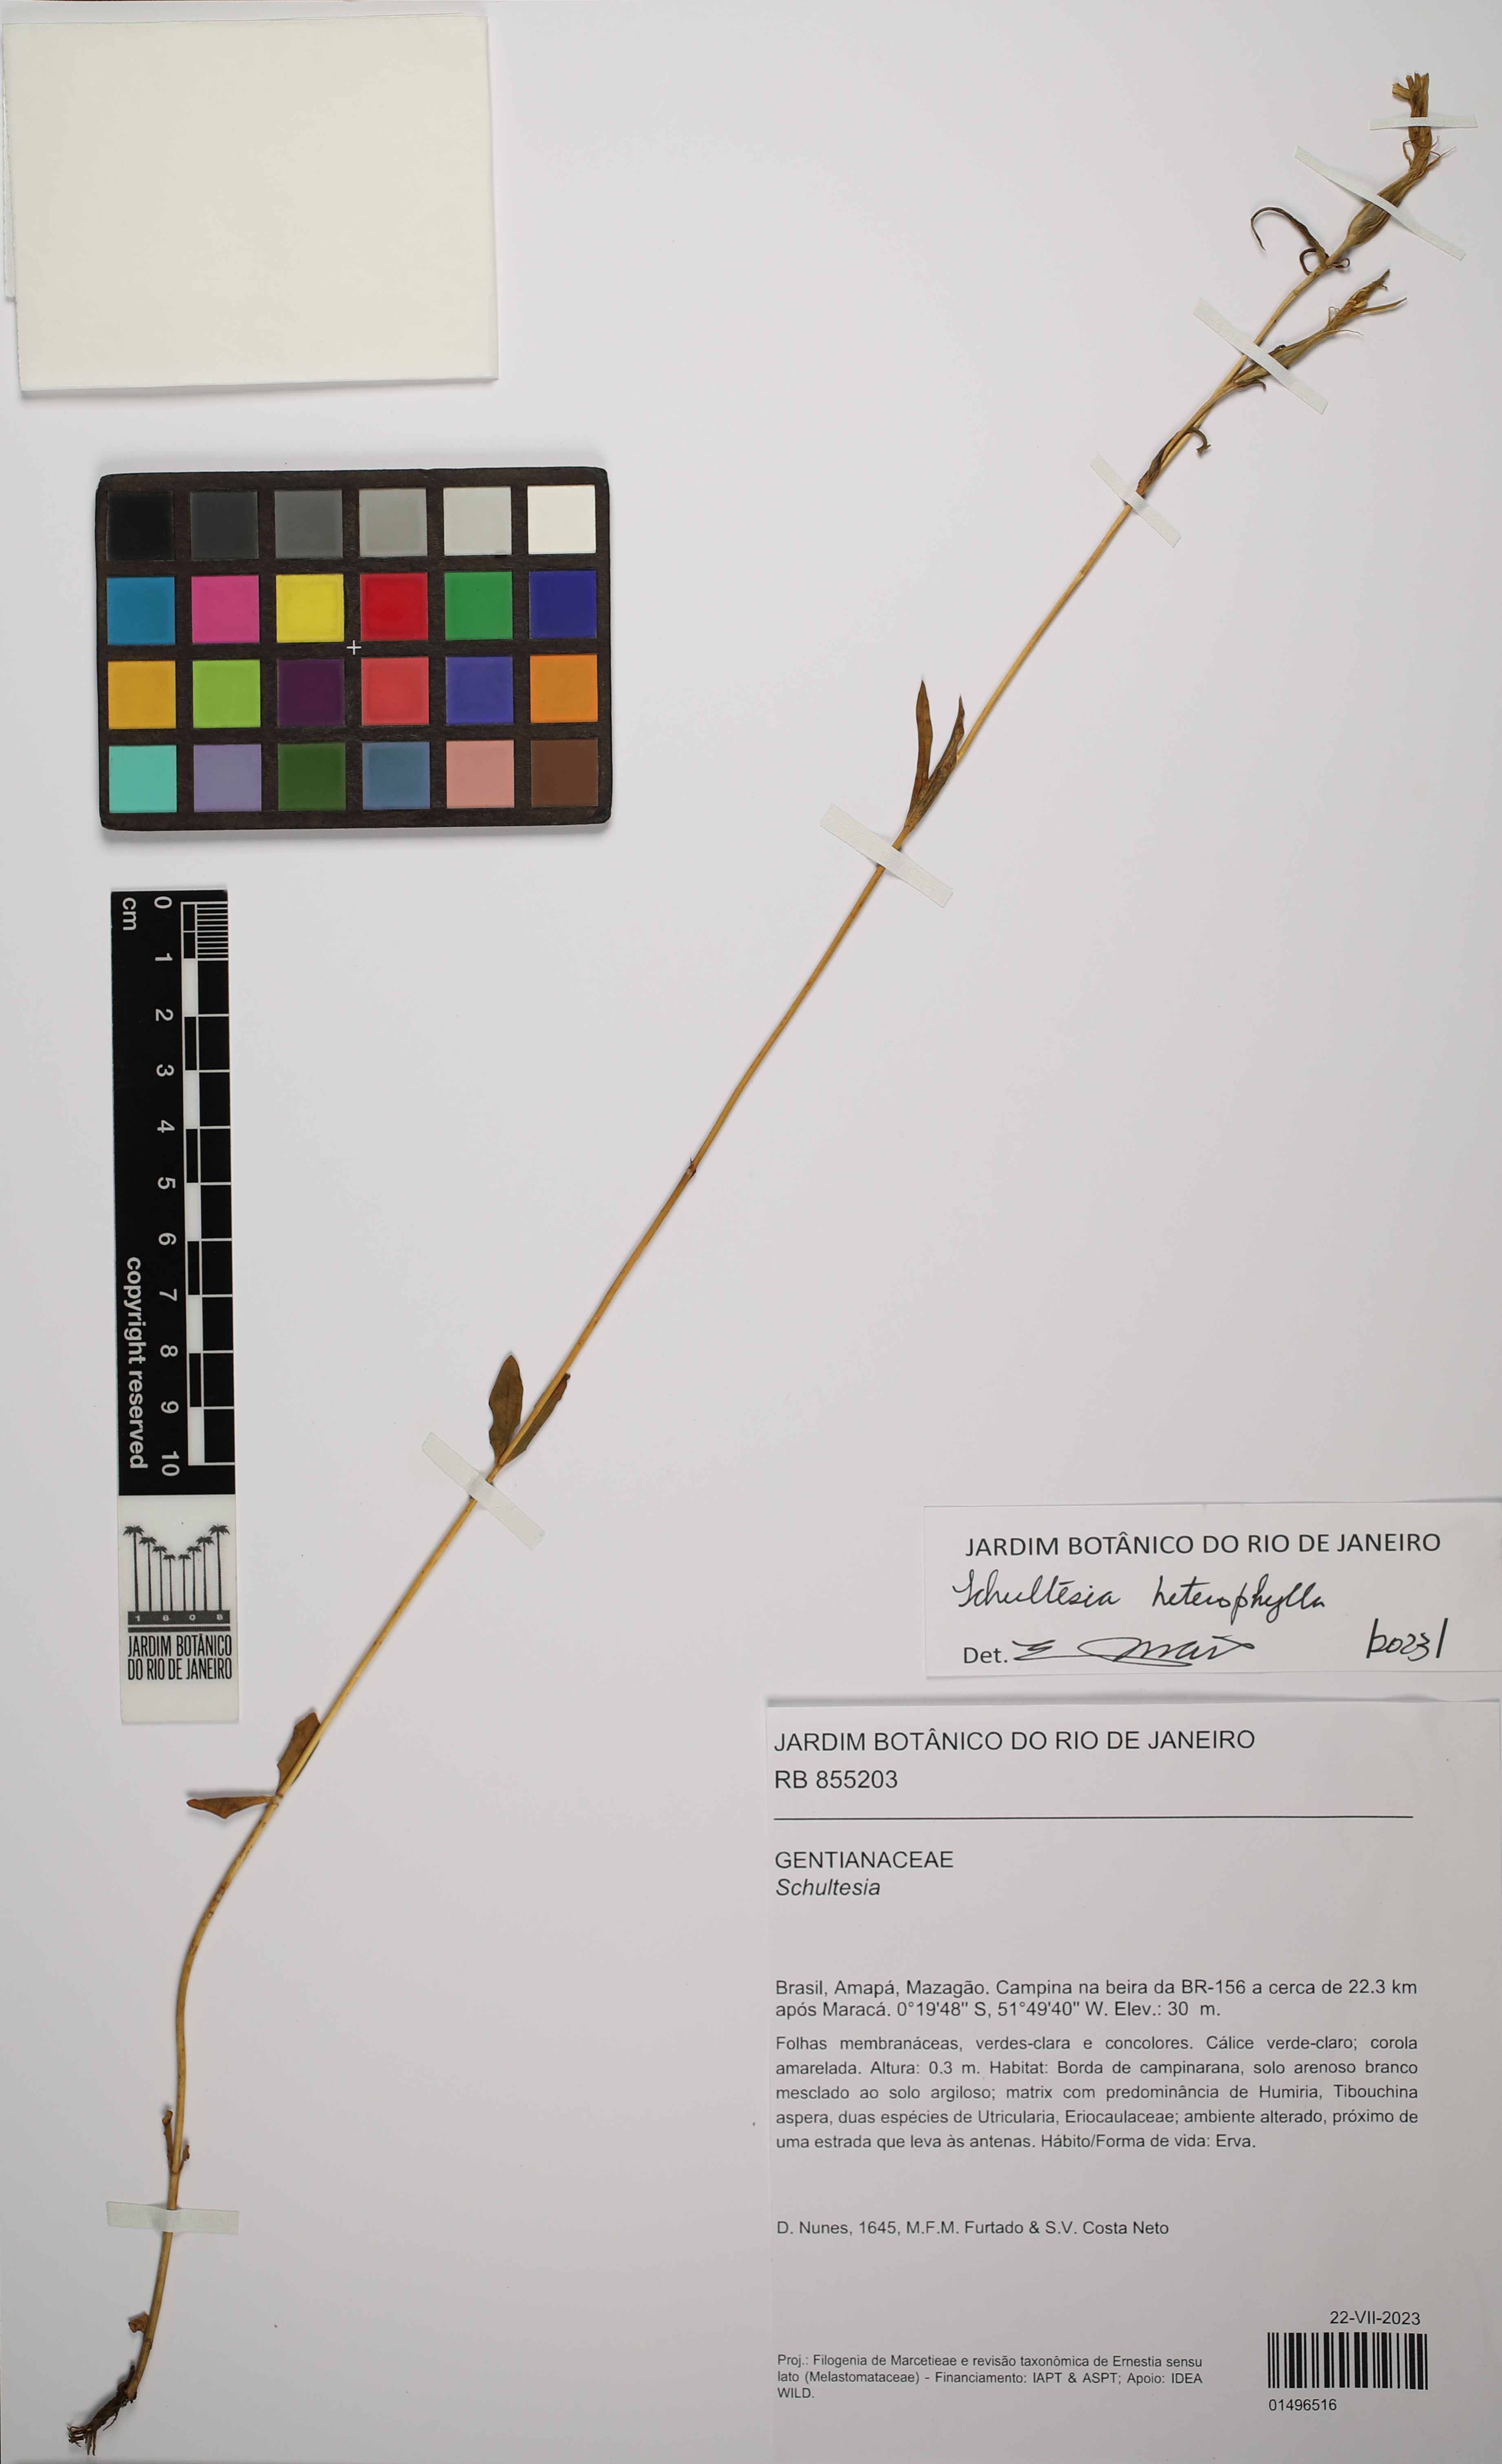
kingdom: Plantae
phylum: Tracheophyta
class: Magnoliopsida
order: Gentianales
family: Gentianaceae
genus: Schultesia
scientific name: Schultesia heterophylla
